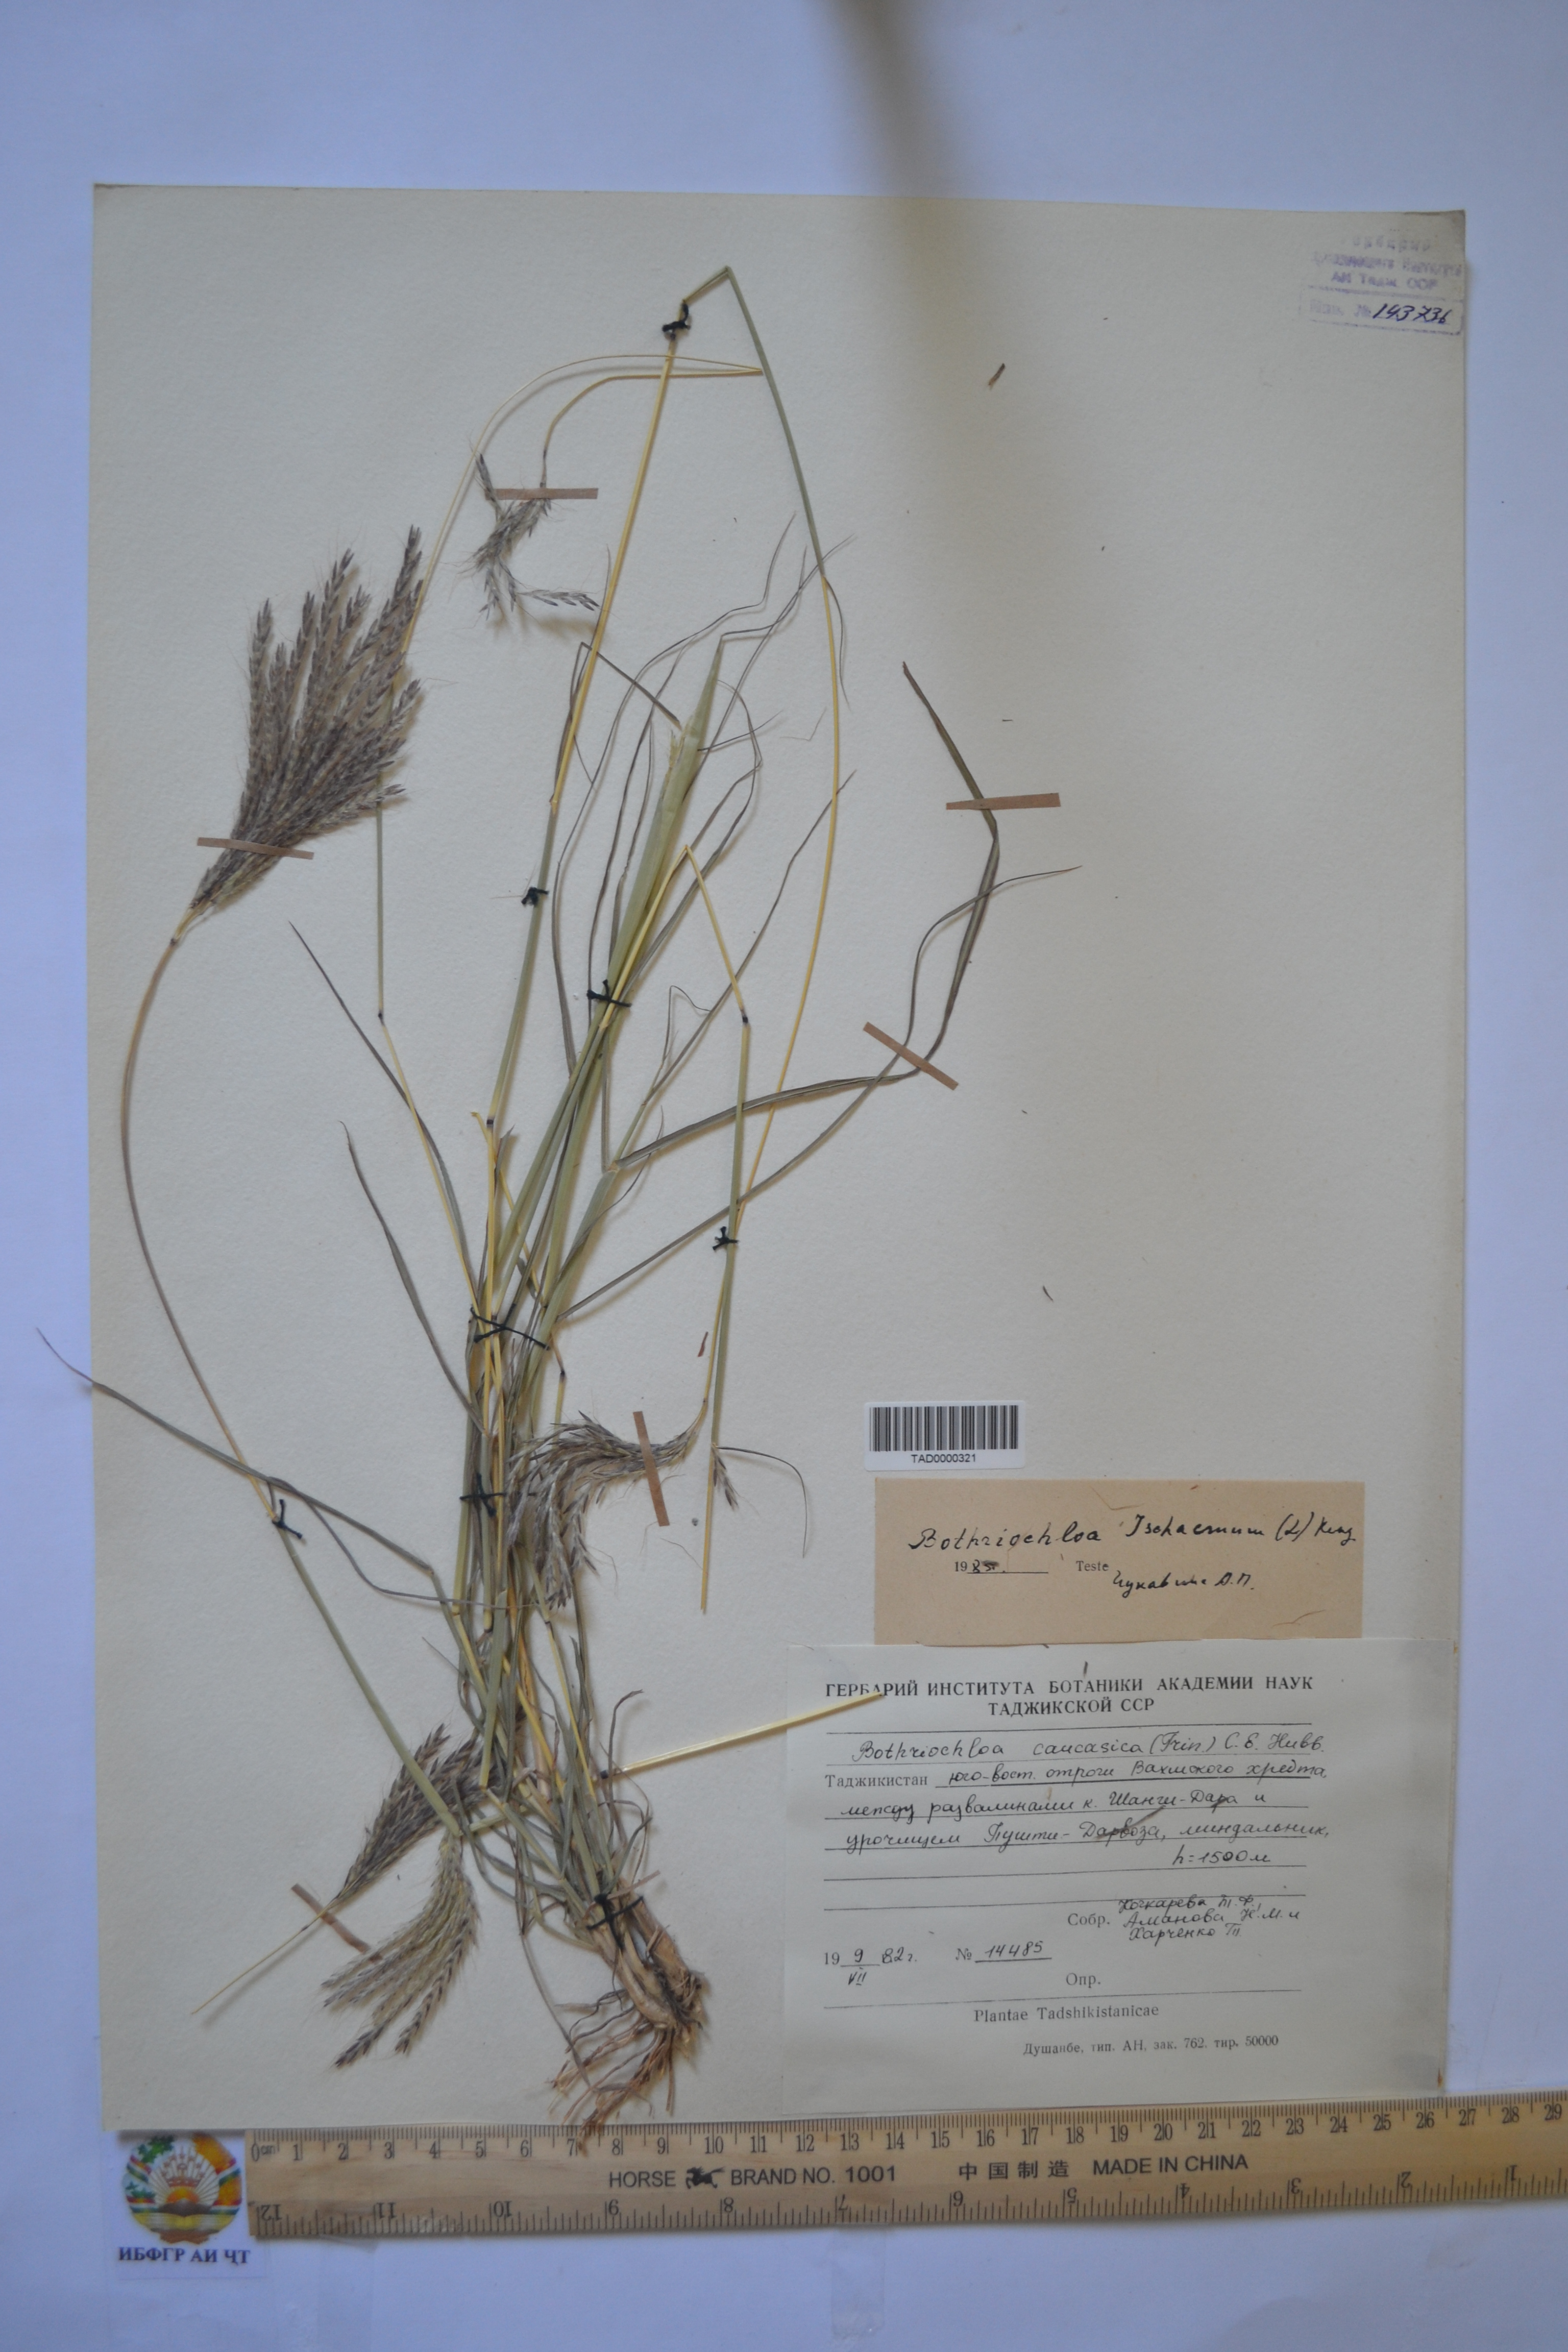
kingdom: Plantae
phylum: Tracheophyta
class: Liliopsida
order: Poales
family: Poaceae
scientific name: Poaceae
